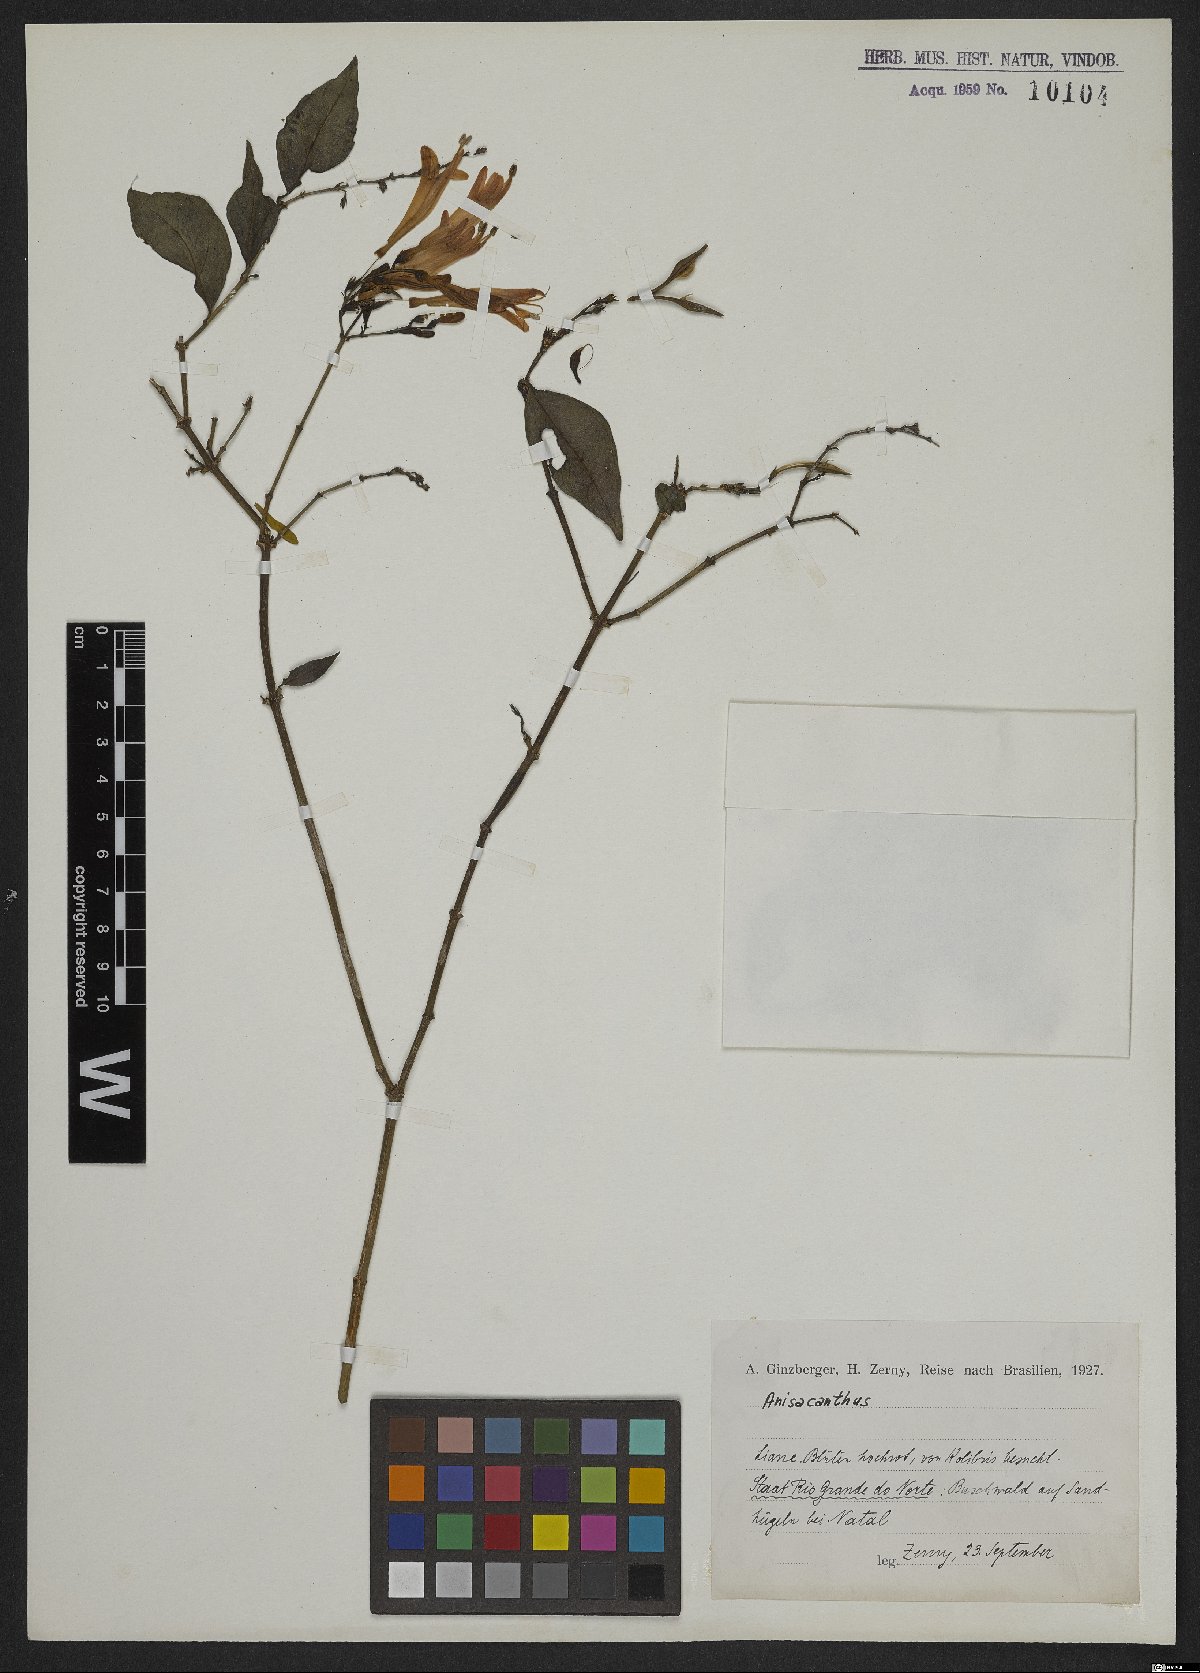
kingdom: Plantae
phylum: Tracheophyta
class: Magnoliopsida
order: Lamiales
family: Acanthaceae
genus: Anisacanthus
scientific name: Anisacanthus
